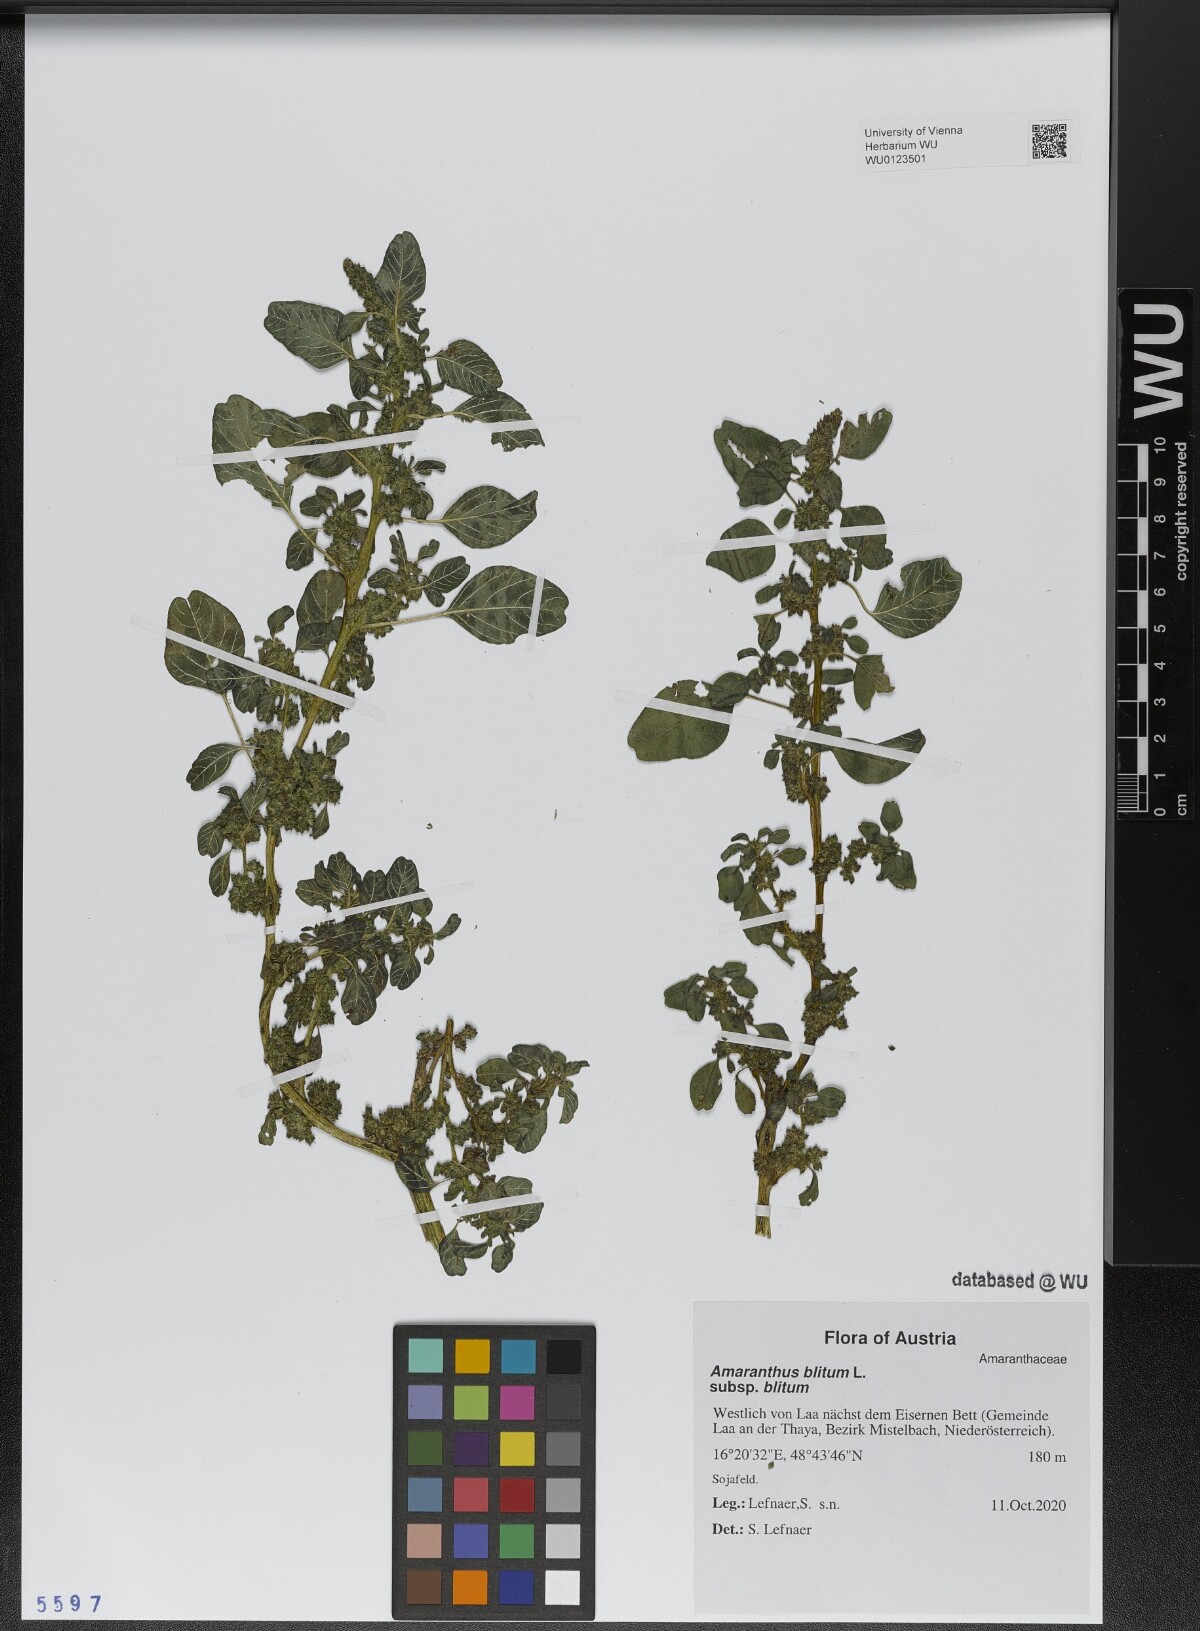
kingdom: Plantae
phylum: Tracheophyta
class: Magnoliopsida
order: Caryophyllales
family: Amaranthaceae
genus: Amaranthus
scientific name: Amaranthus blitum
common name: Purple amaranth
